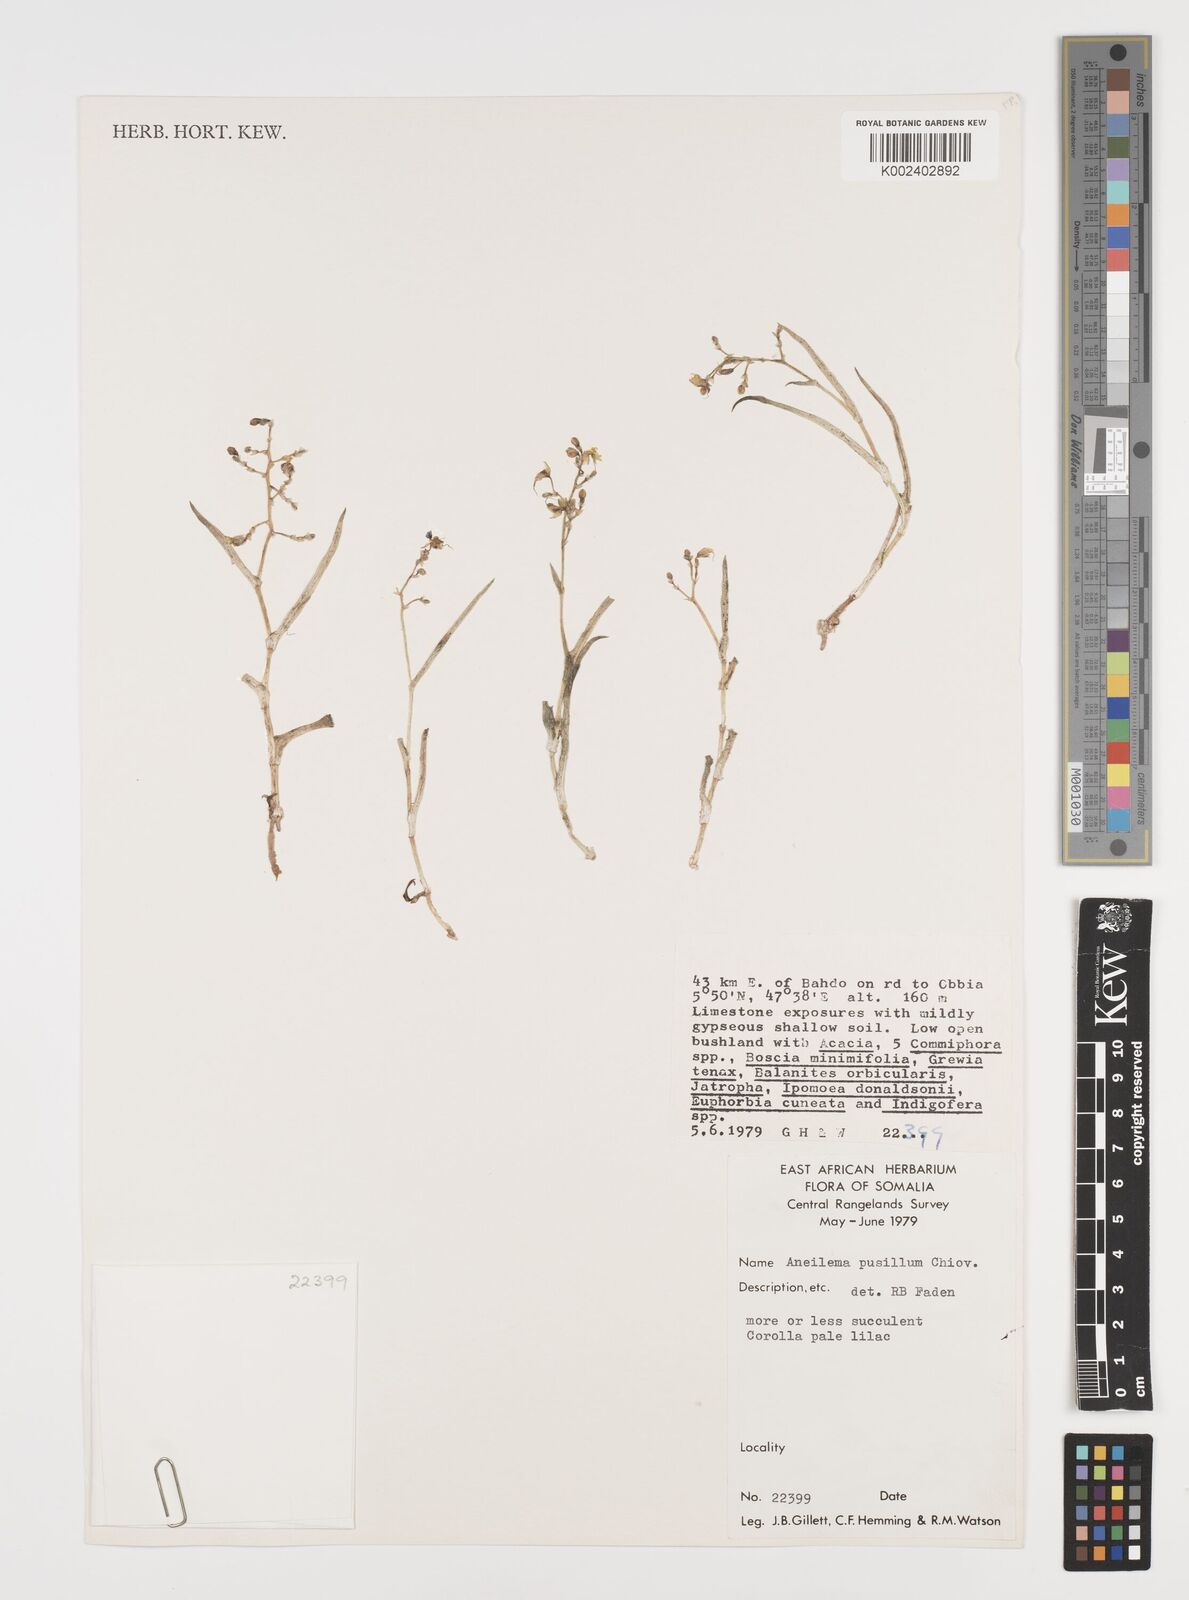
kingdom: Plantae
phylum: Tracheophyta
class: Liliopsida
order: Commelinales
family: Commelinaceae
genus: Aneilema
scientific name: Aneilema pusillum
